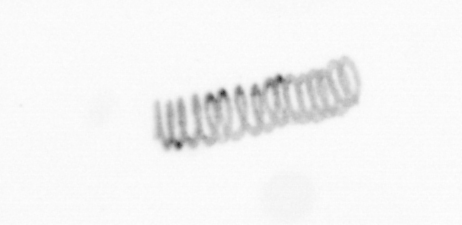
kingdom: Chromista
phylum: Ochrophyta
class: Bacillariophyceae
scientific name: Bacillariophyceae
